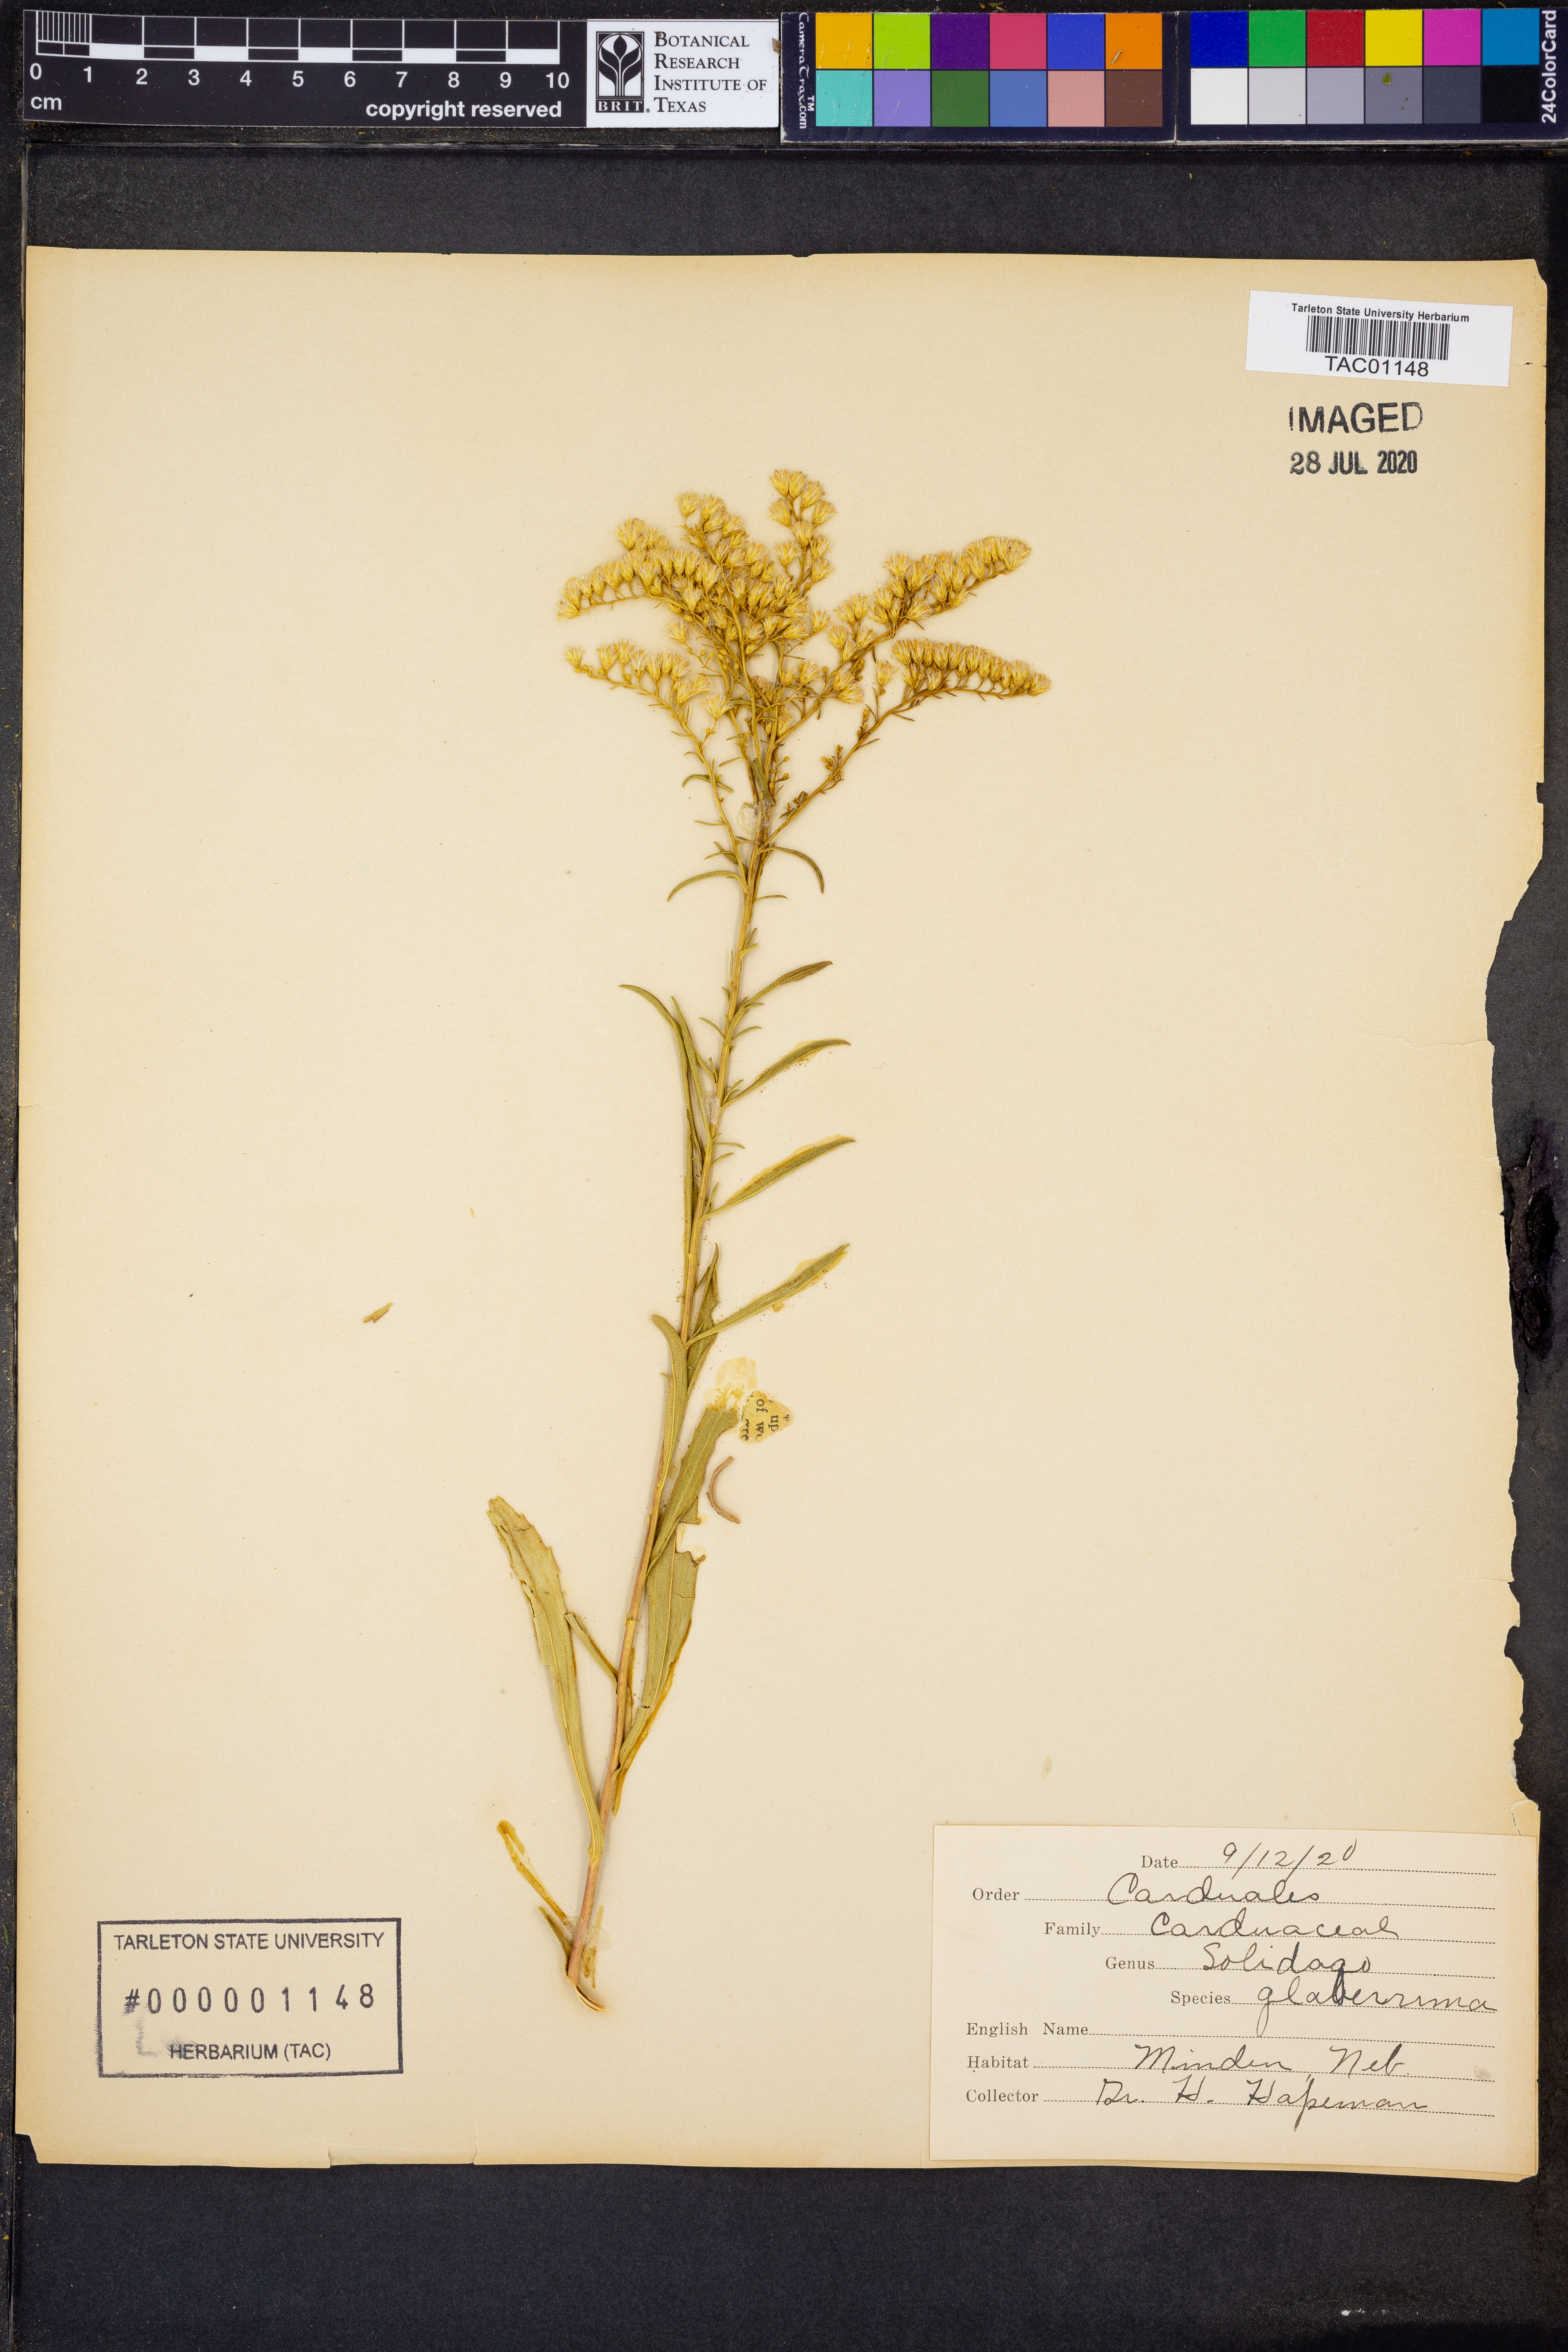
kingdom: Plantae
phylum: Tracheophyta
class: Magnoliopsida
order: Asterales
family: Asteraceae
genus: Solidago
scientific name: Solidago missouriensis
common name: Prairie goldenrod
